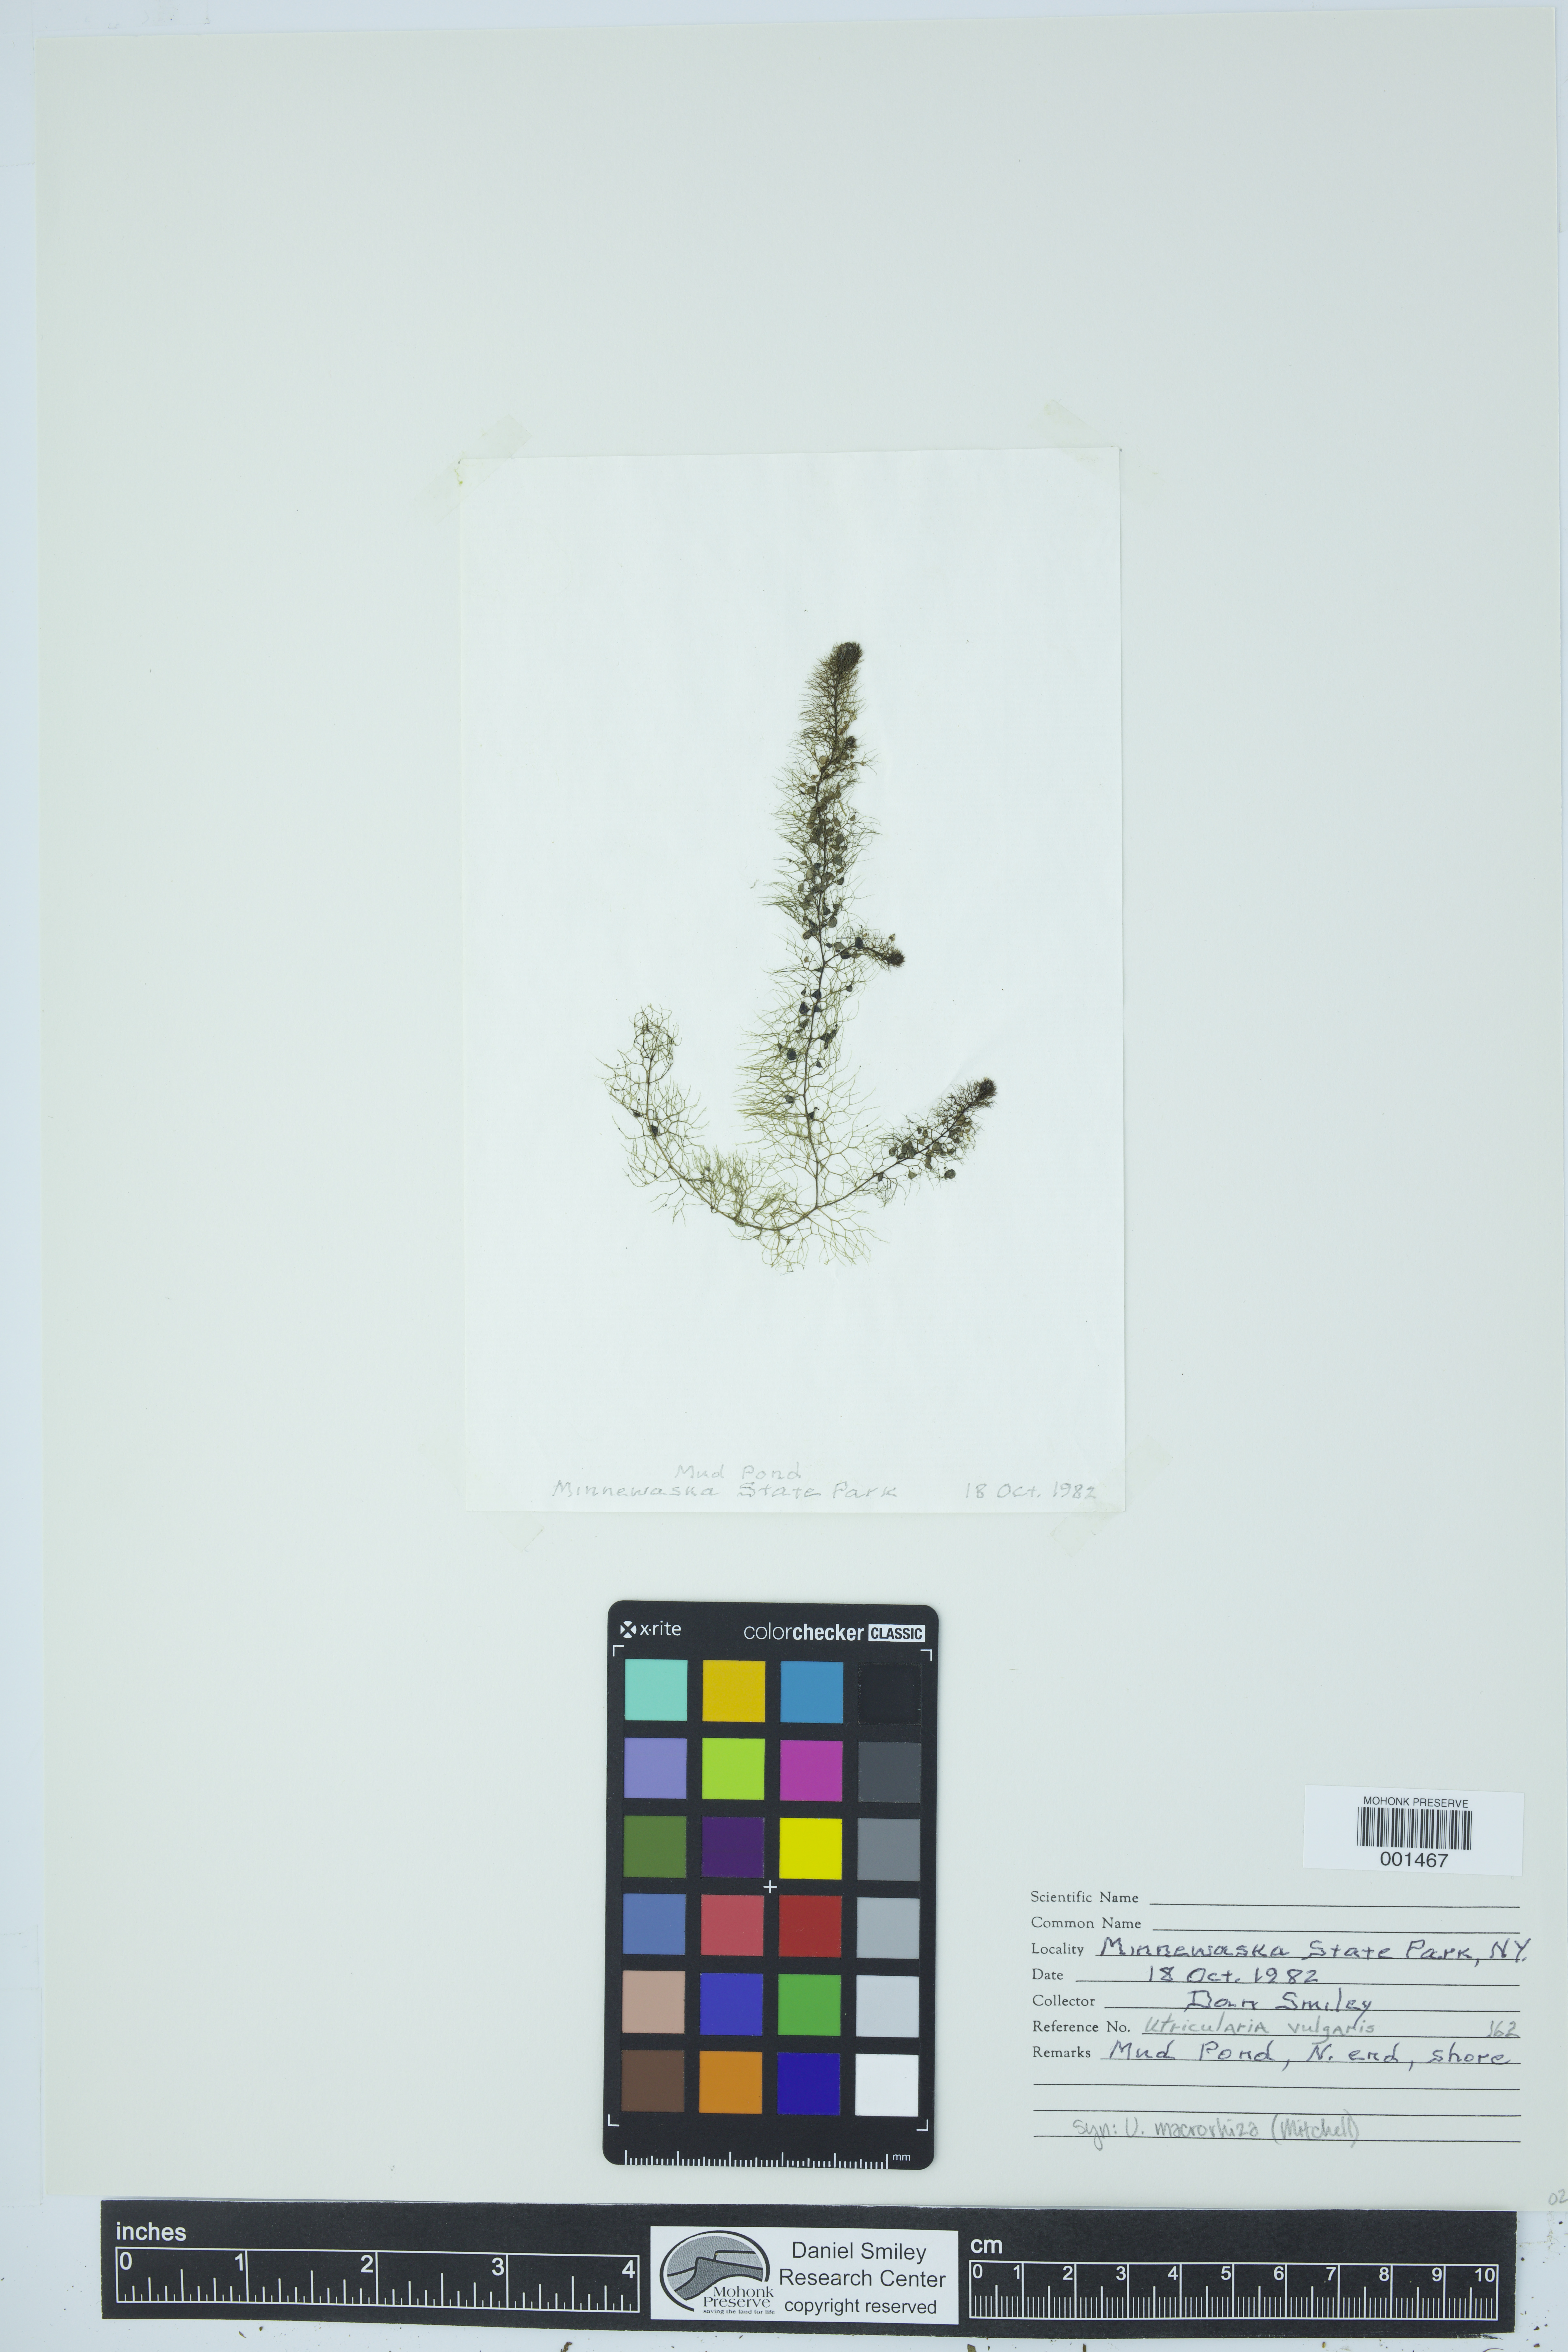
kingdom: Plantae
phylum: Tracheophyta
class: Magnoliopsida
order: Lamiales
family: Lentibulariaceae
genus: Utricularia
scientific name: Utricularia macrorhiza
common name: Common bladderwort
